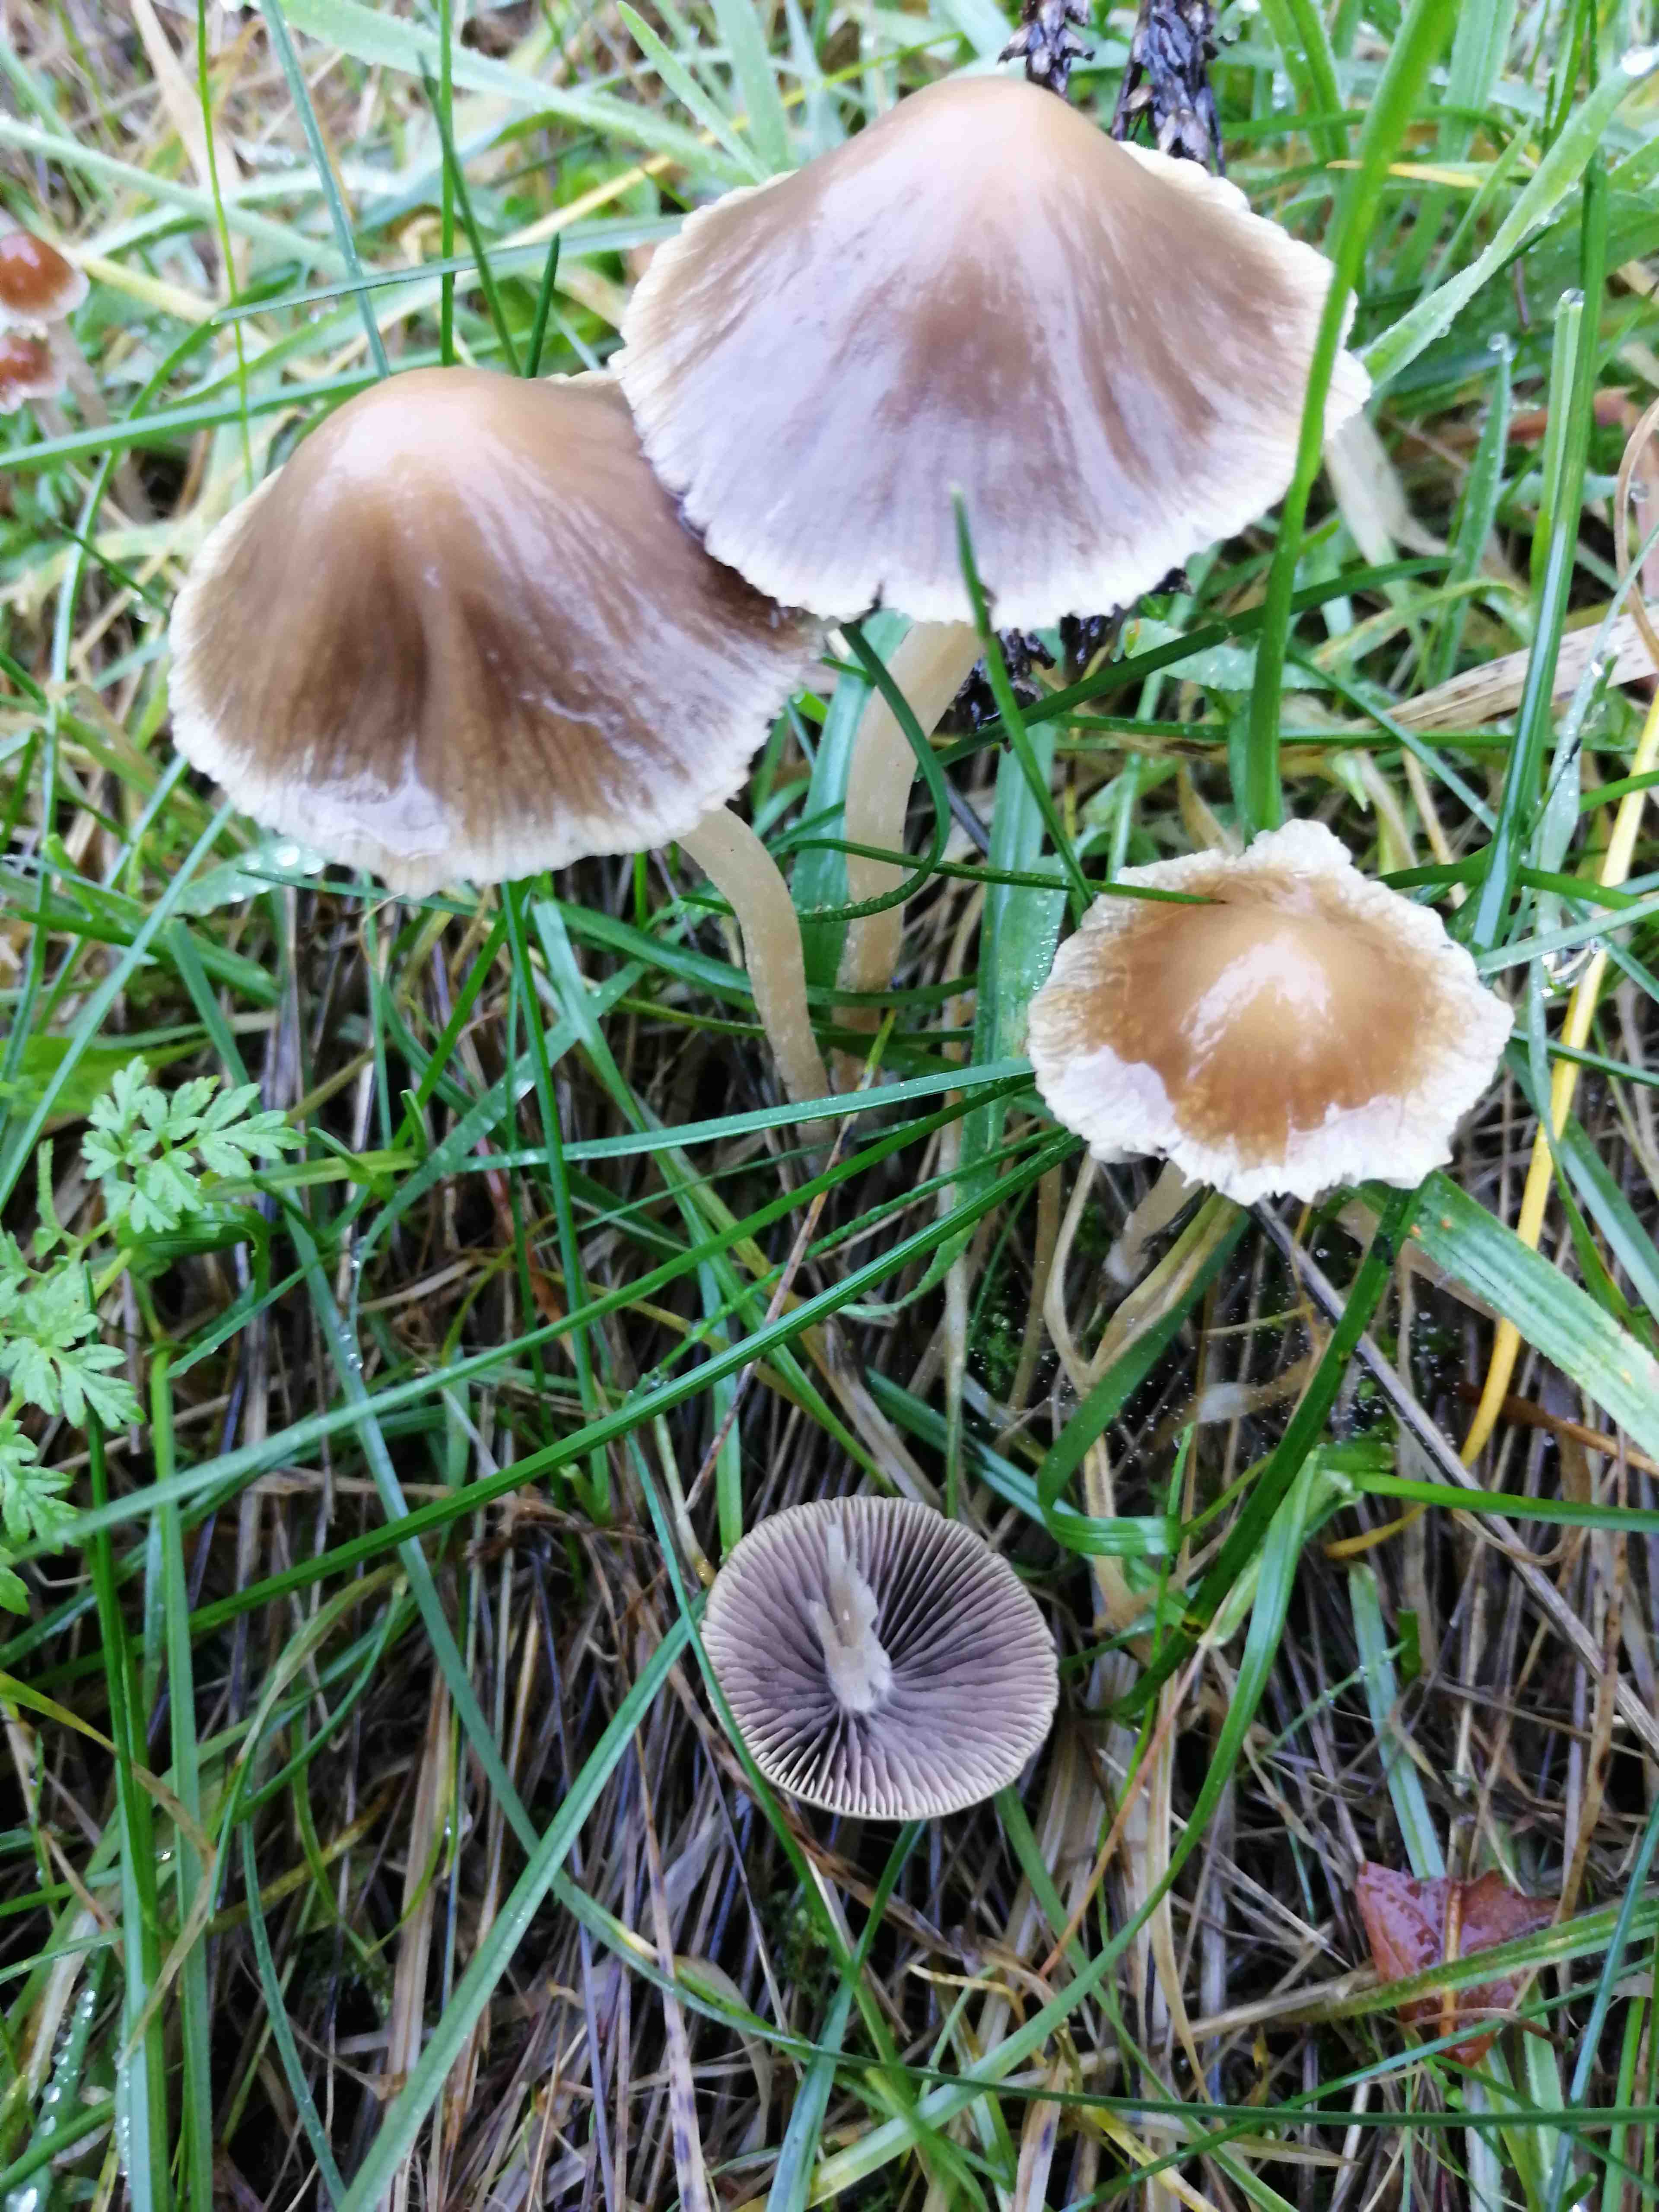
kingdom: Fungi
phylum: Basidiomycota
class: Agaricomycetes
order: Agaricales
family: Psathyrellaceae
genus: Psathyrella
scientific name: Psathyrella
